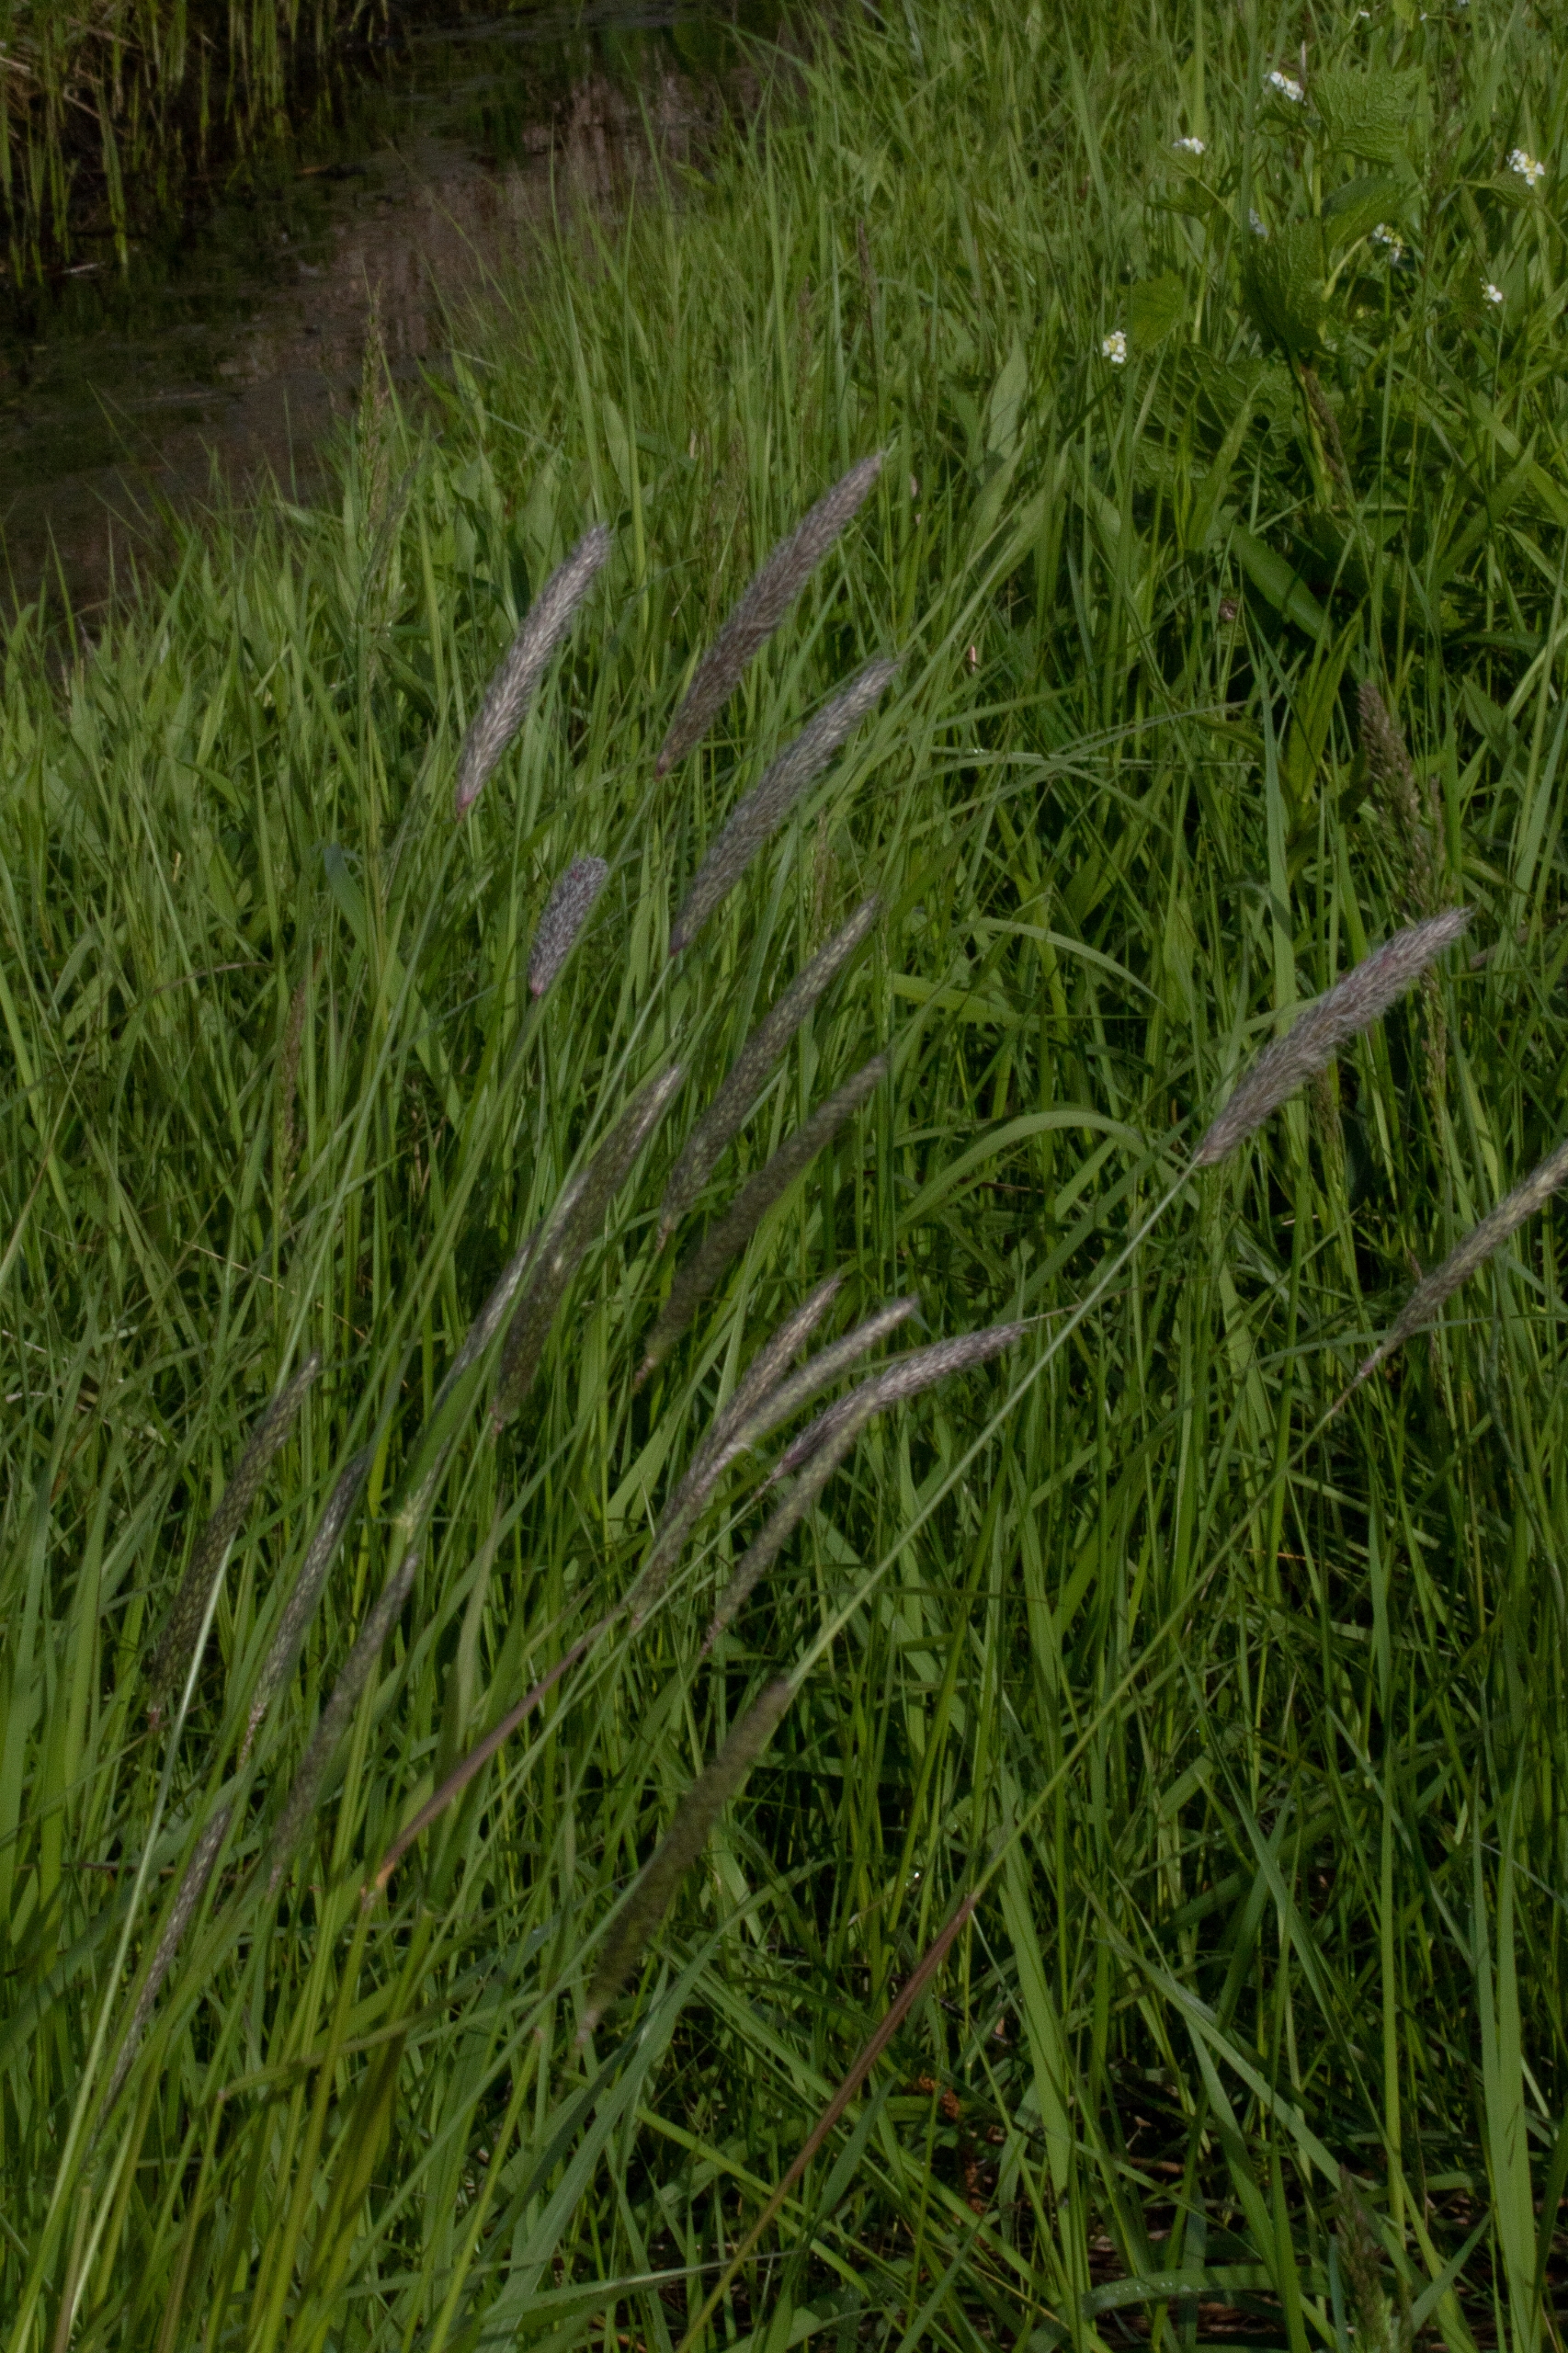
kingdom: Plantae
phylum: Tracheophyta
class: Liliopsida
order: Poales
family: Poaceae
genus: Alopecurus
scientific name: Alopecurus pratensis
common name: Eng-rævehale
